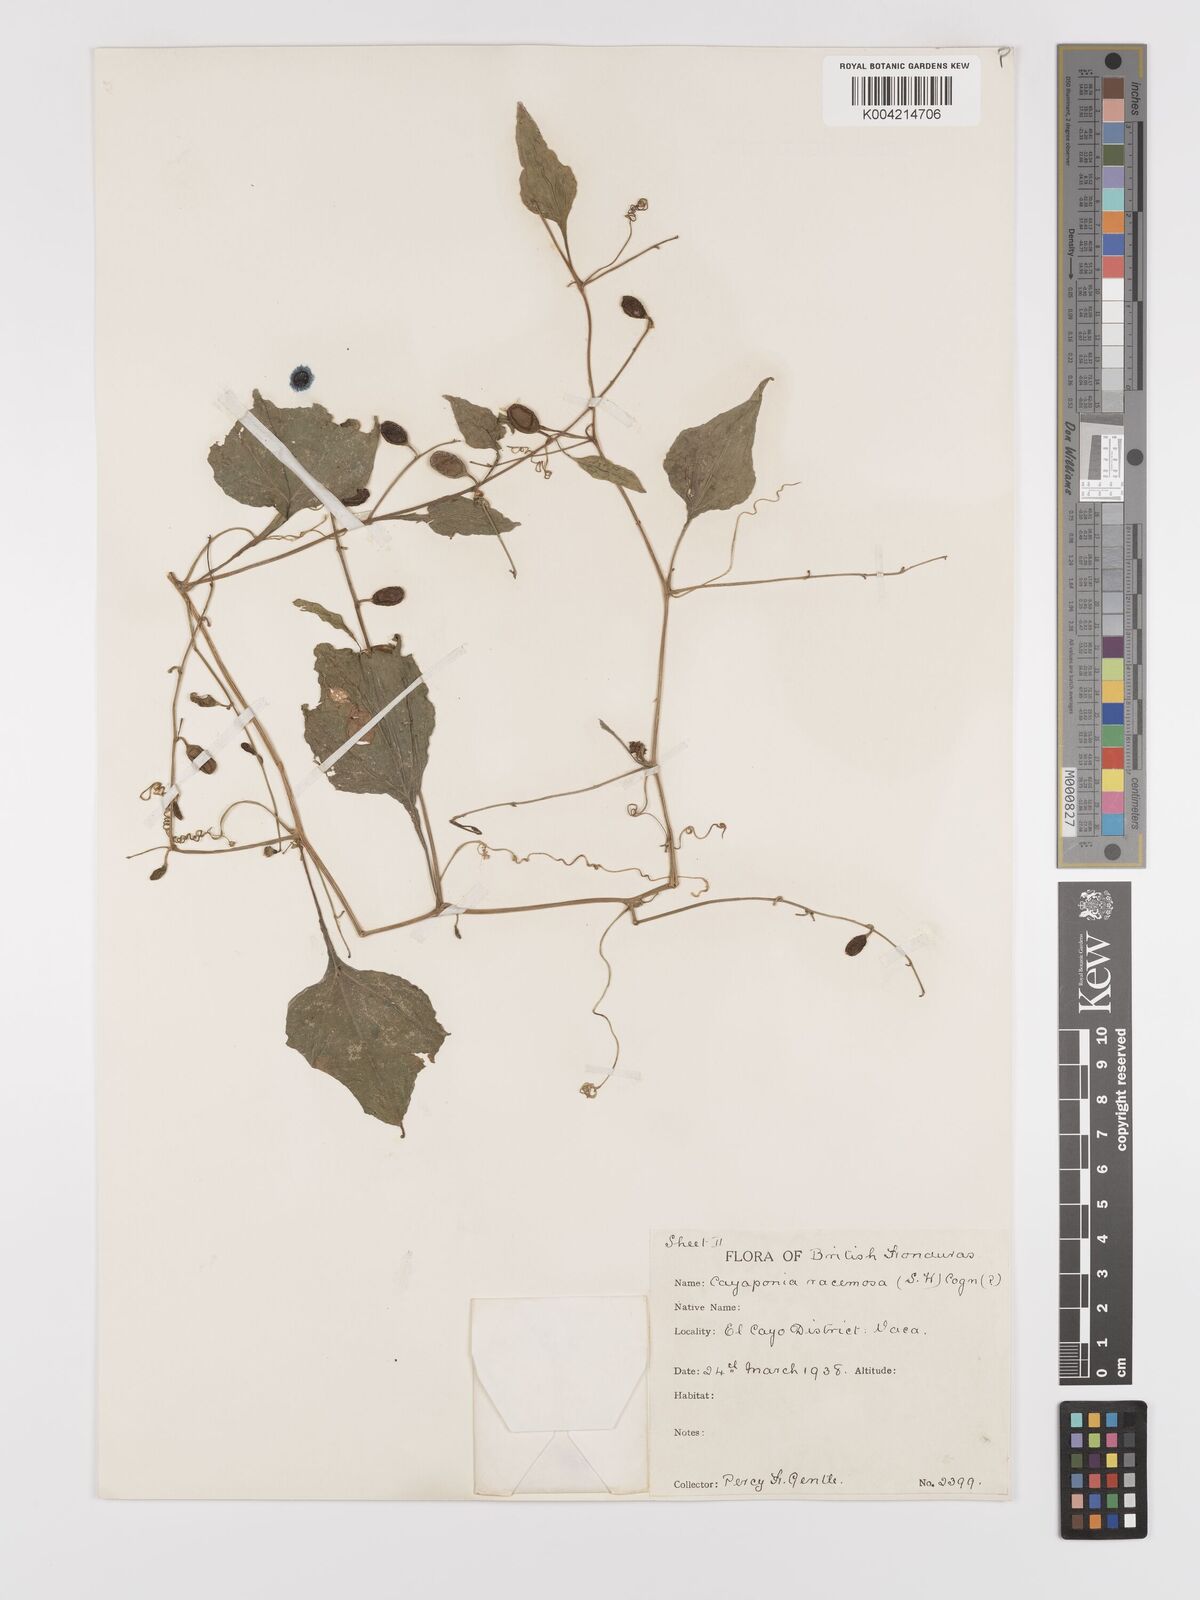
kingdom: Plantae
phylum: Tracheophyta
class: Magnoliopsida
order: Cucurbitales
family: Cucurbitaceae
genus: Cayaponia
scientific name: Cayaponia racemosa
